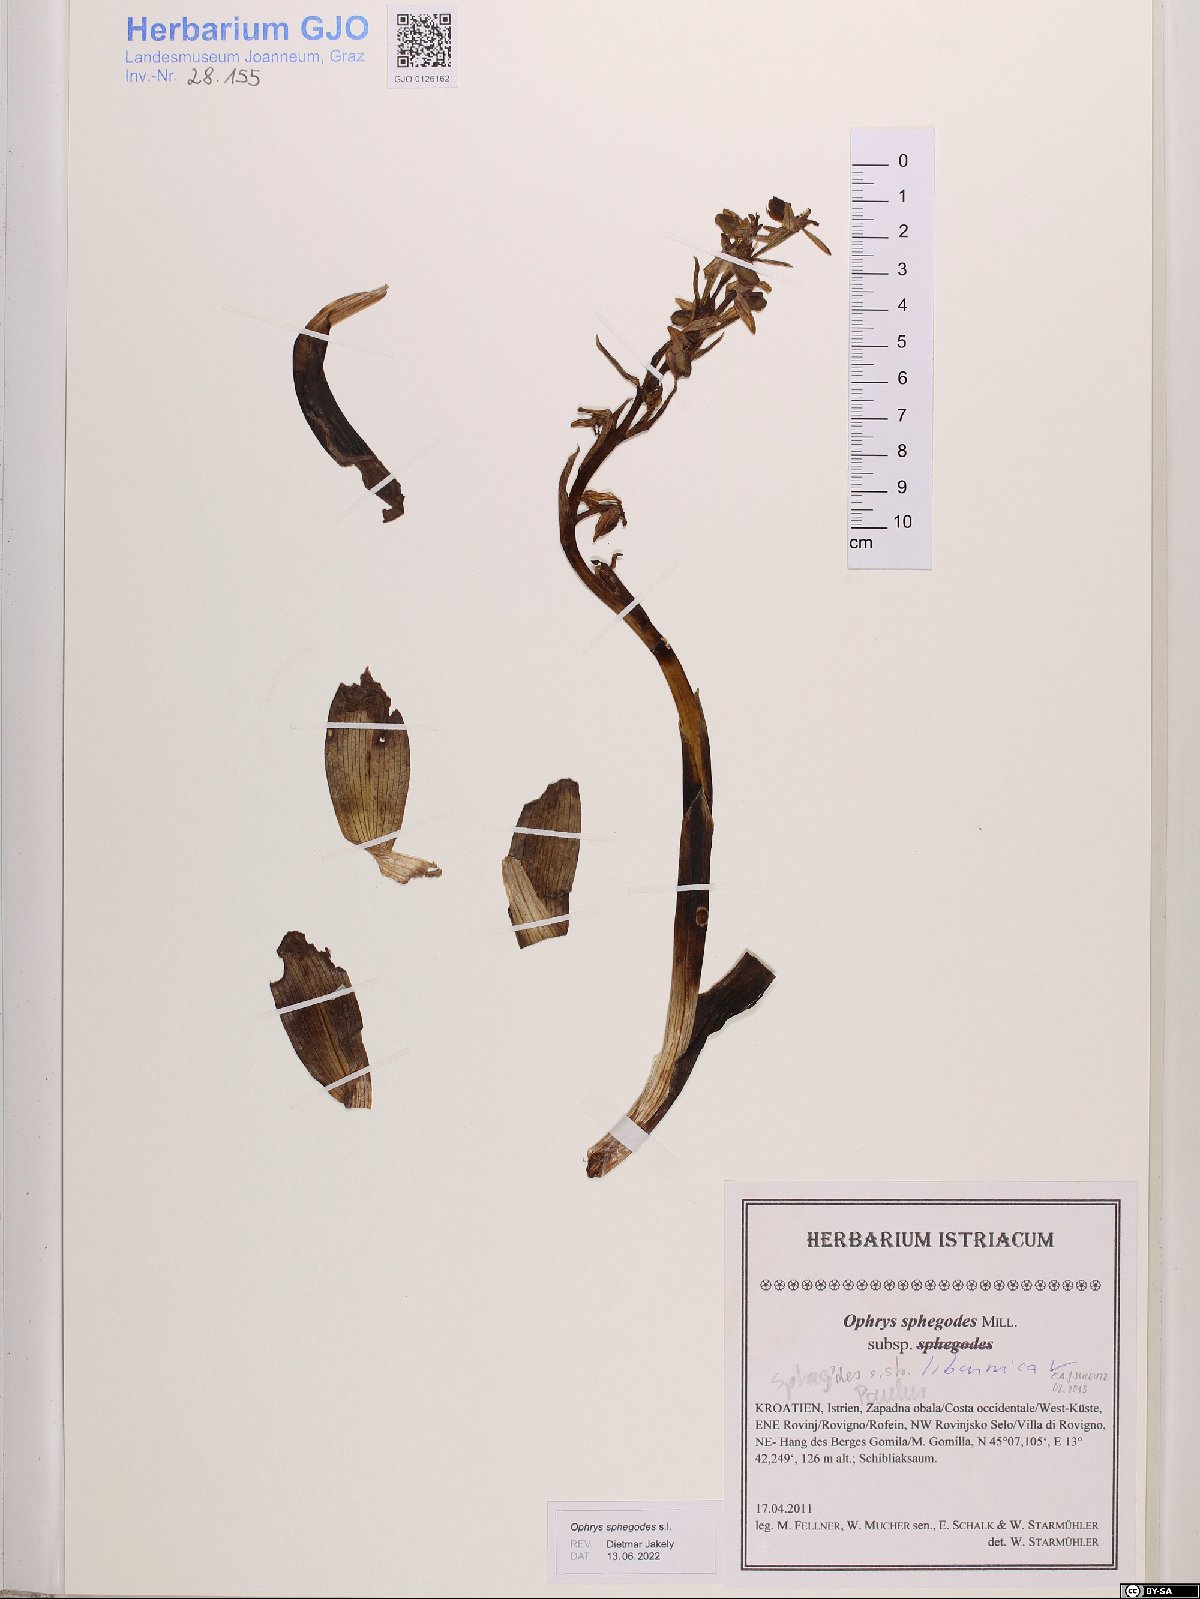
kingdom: Plantae
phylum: Tracheophyta
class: Liliopsida
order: Asparagales
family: Orchidaceae
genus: Ophrys
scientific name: Ophrys sphegodes
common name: Early spider-orchid
